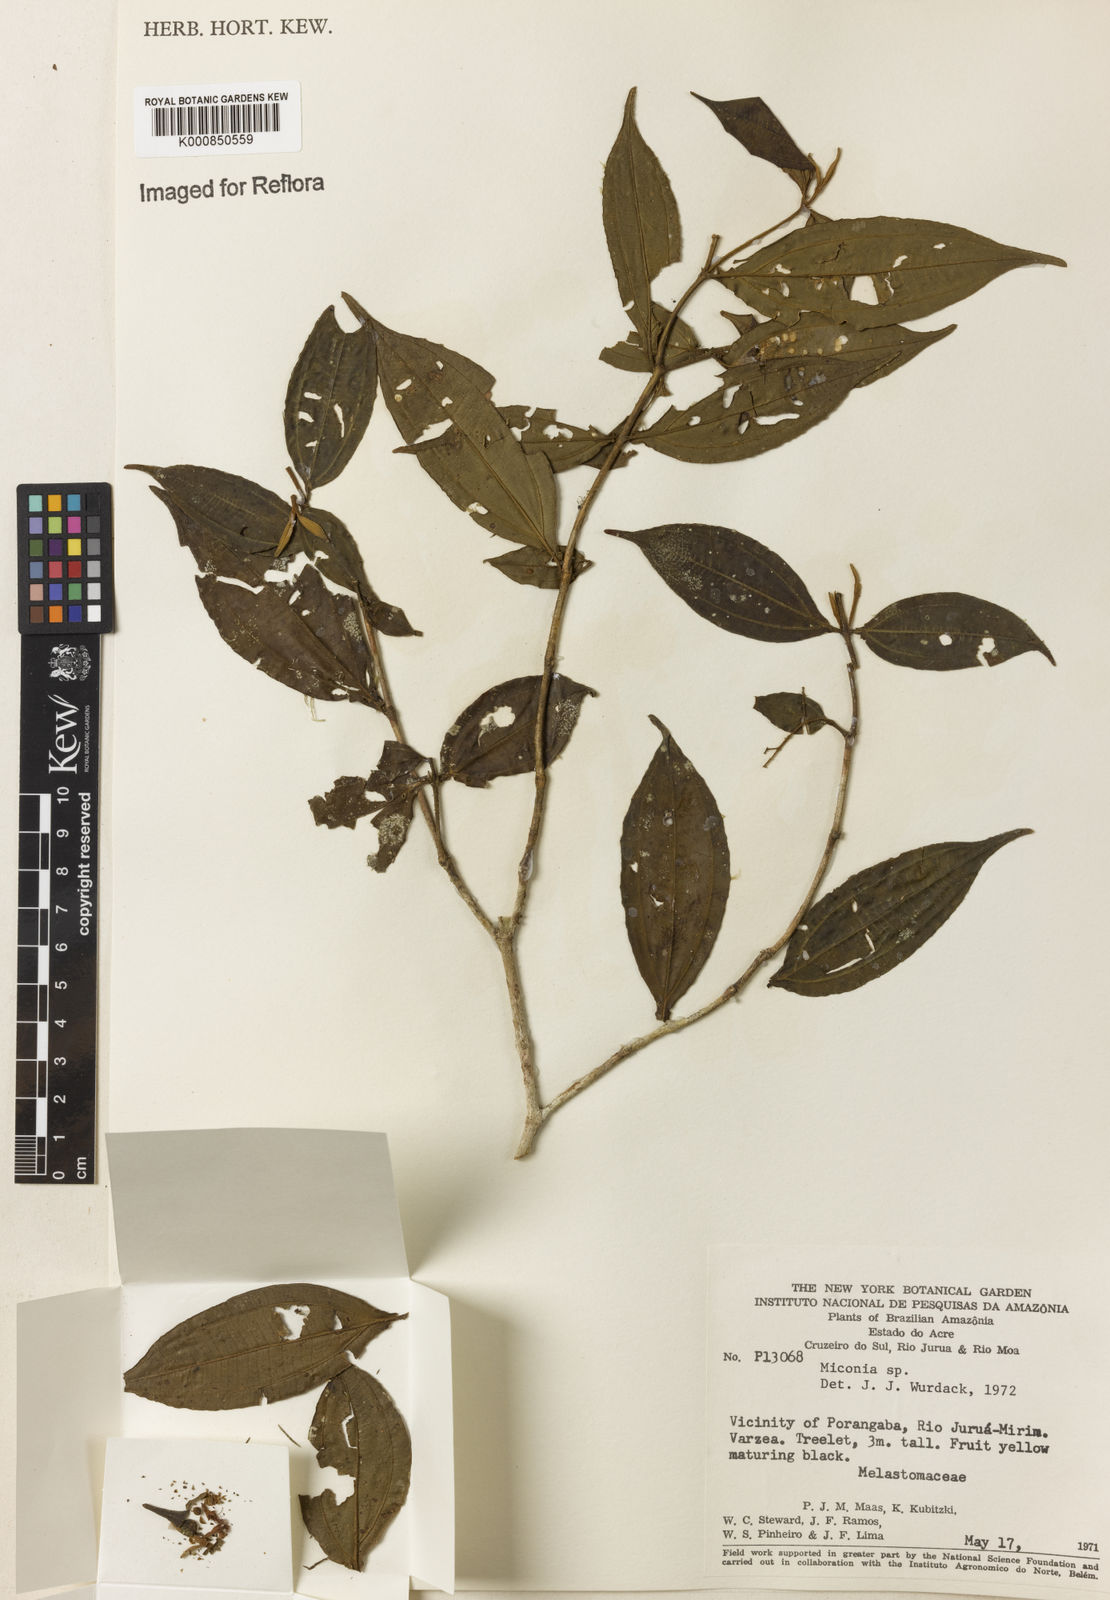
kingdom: Plantae
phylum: Tracheophyta
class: Magnoliopsida
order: Myrtales
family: Melastomataceae
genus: Miconia
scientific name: Miconia
